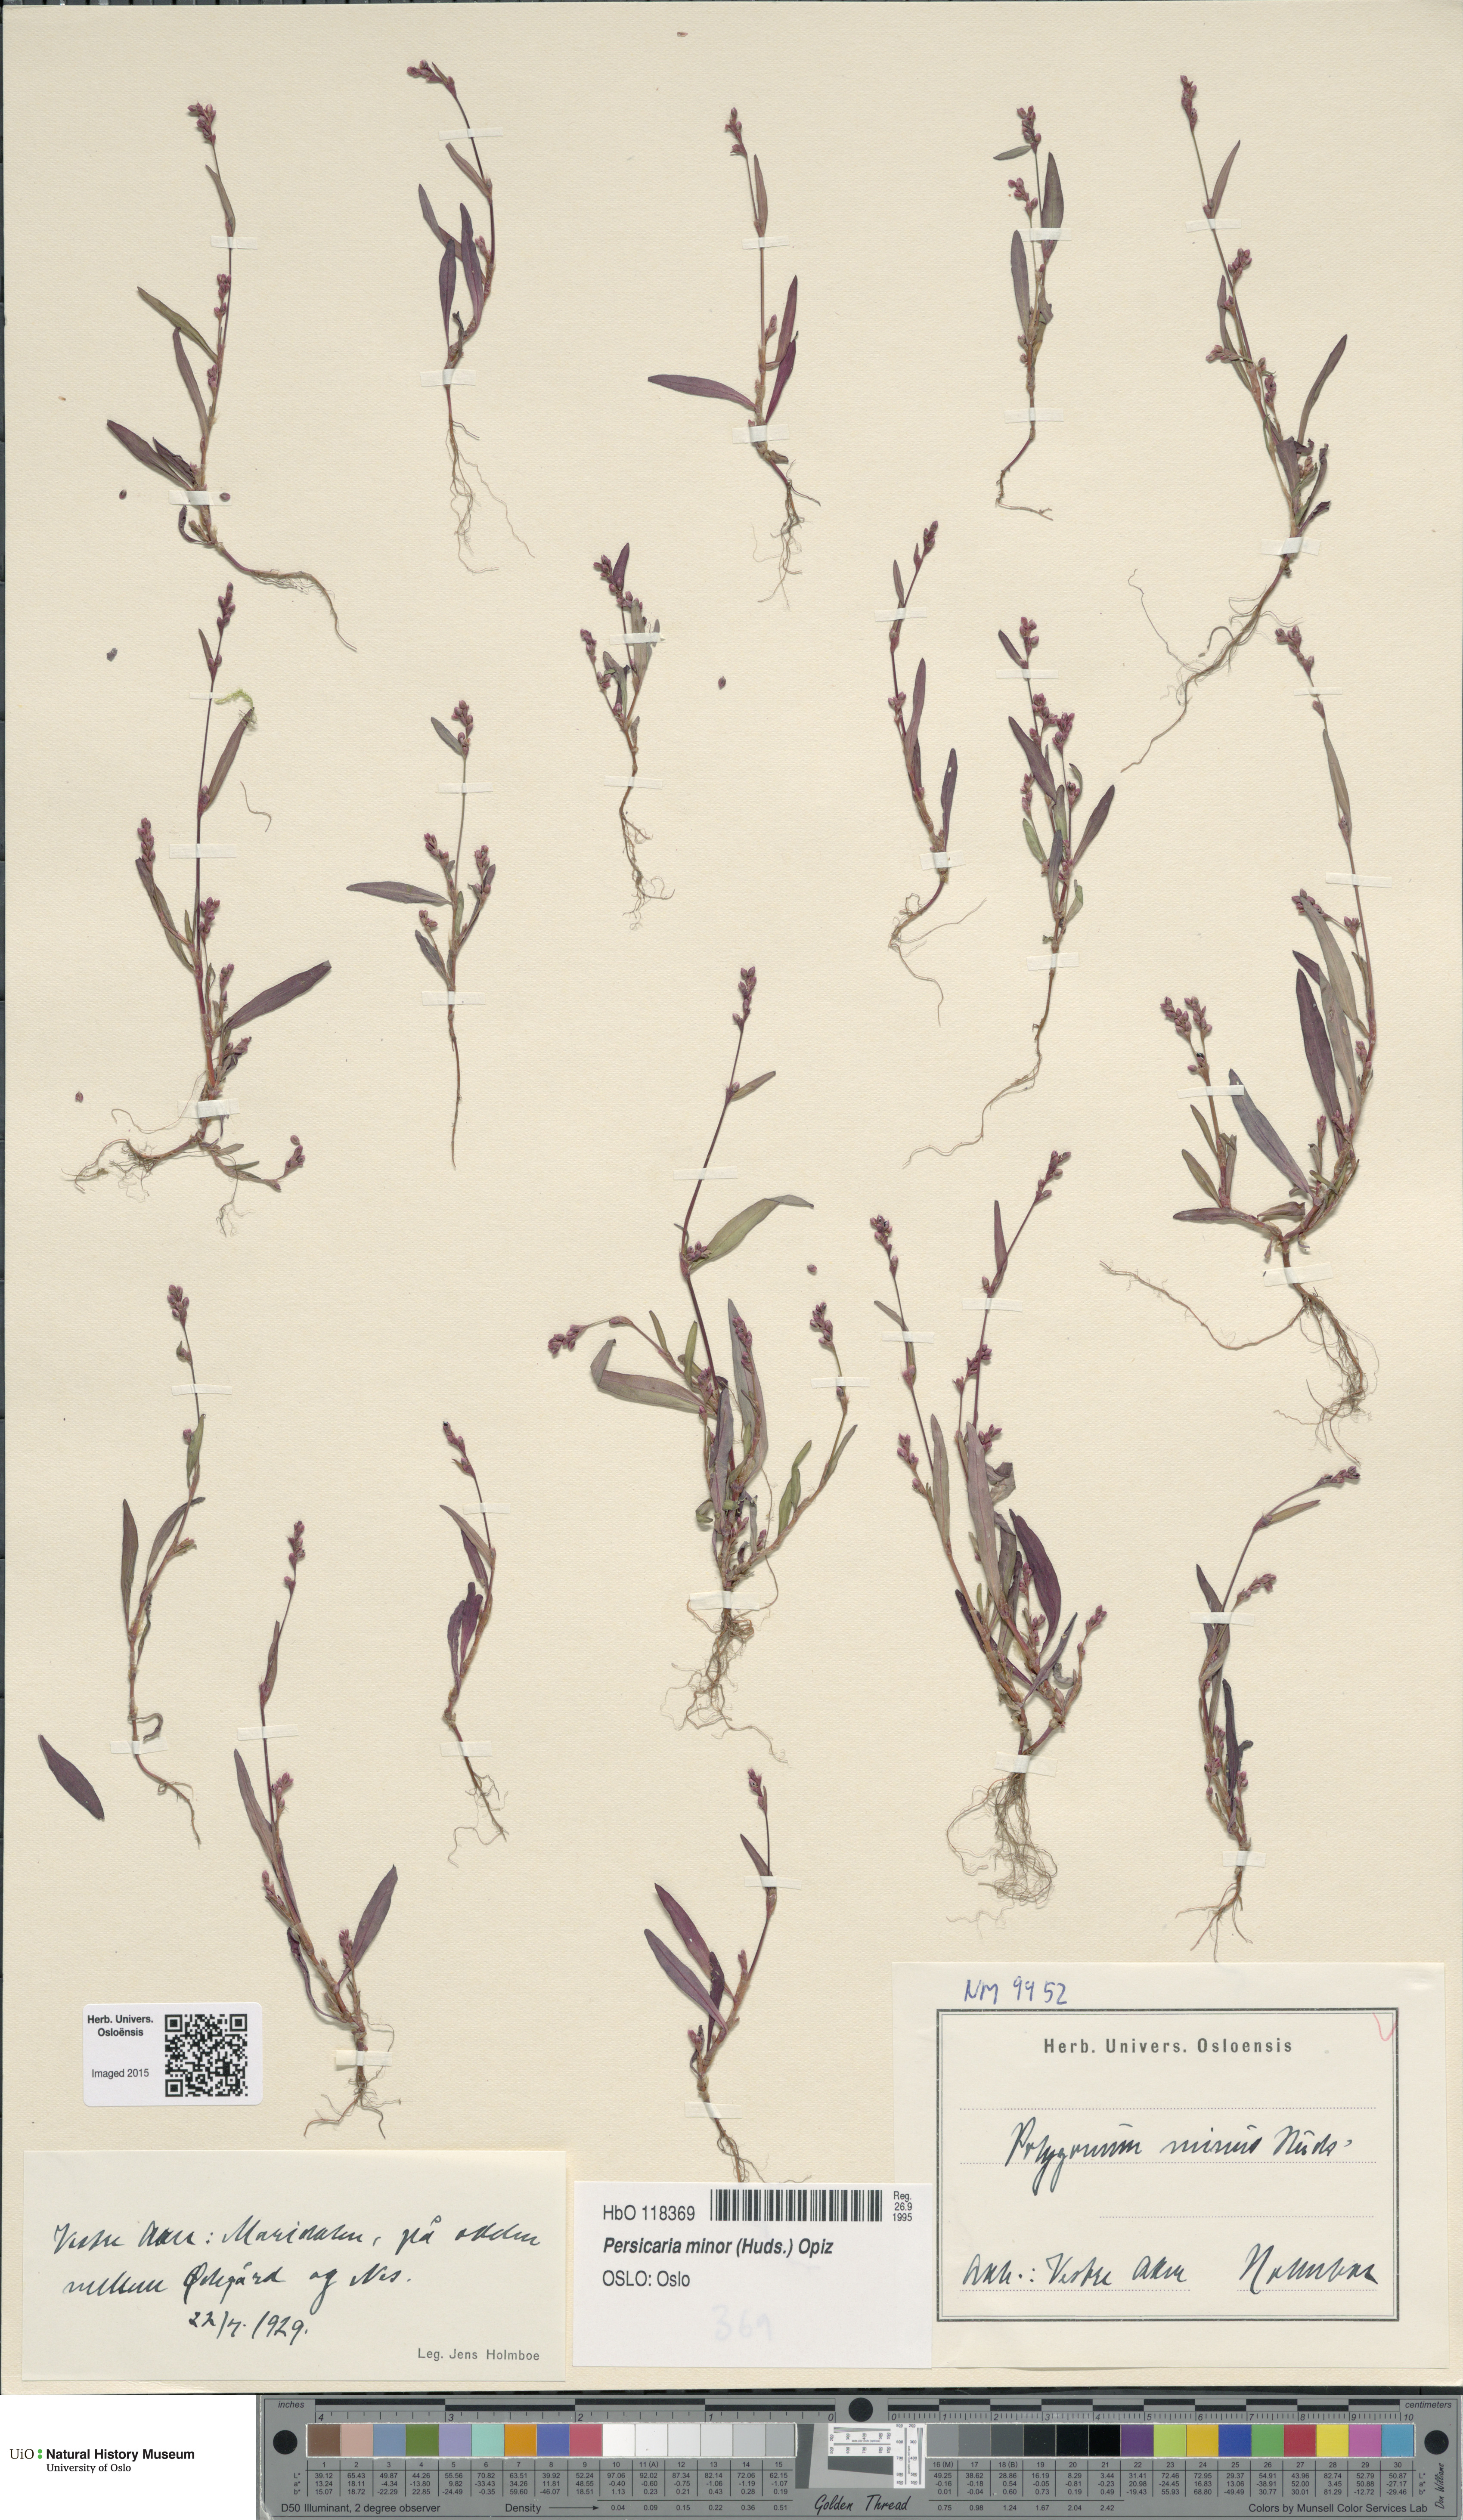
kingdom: Plantae
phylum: Tracheophyta
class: Magnoliopsida
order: Caryophyllales
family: Polygonaceae
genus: Persicaria
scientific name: Persicaria minor
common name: Small water-pepper
